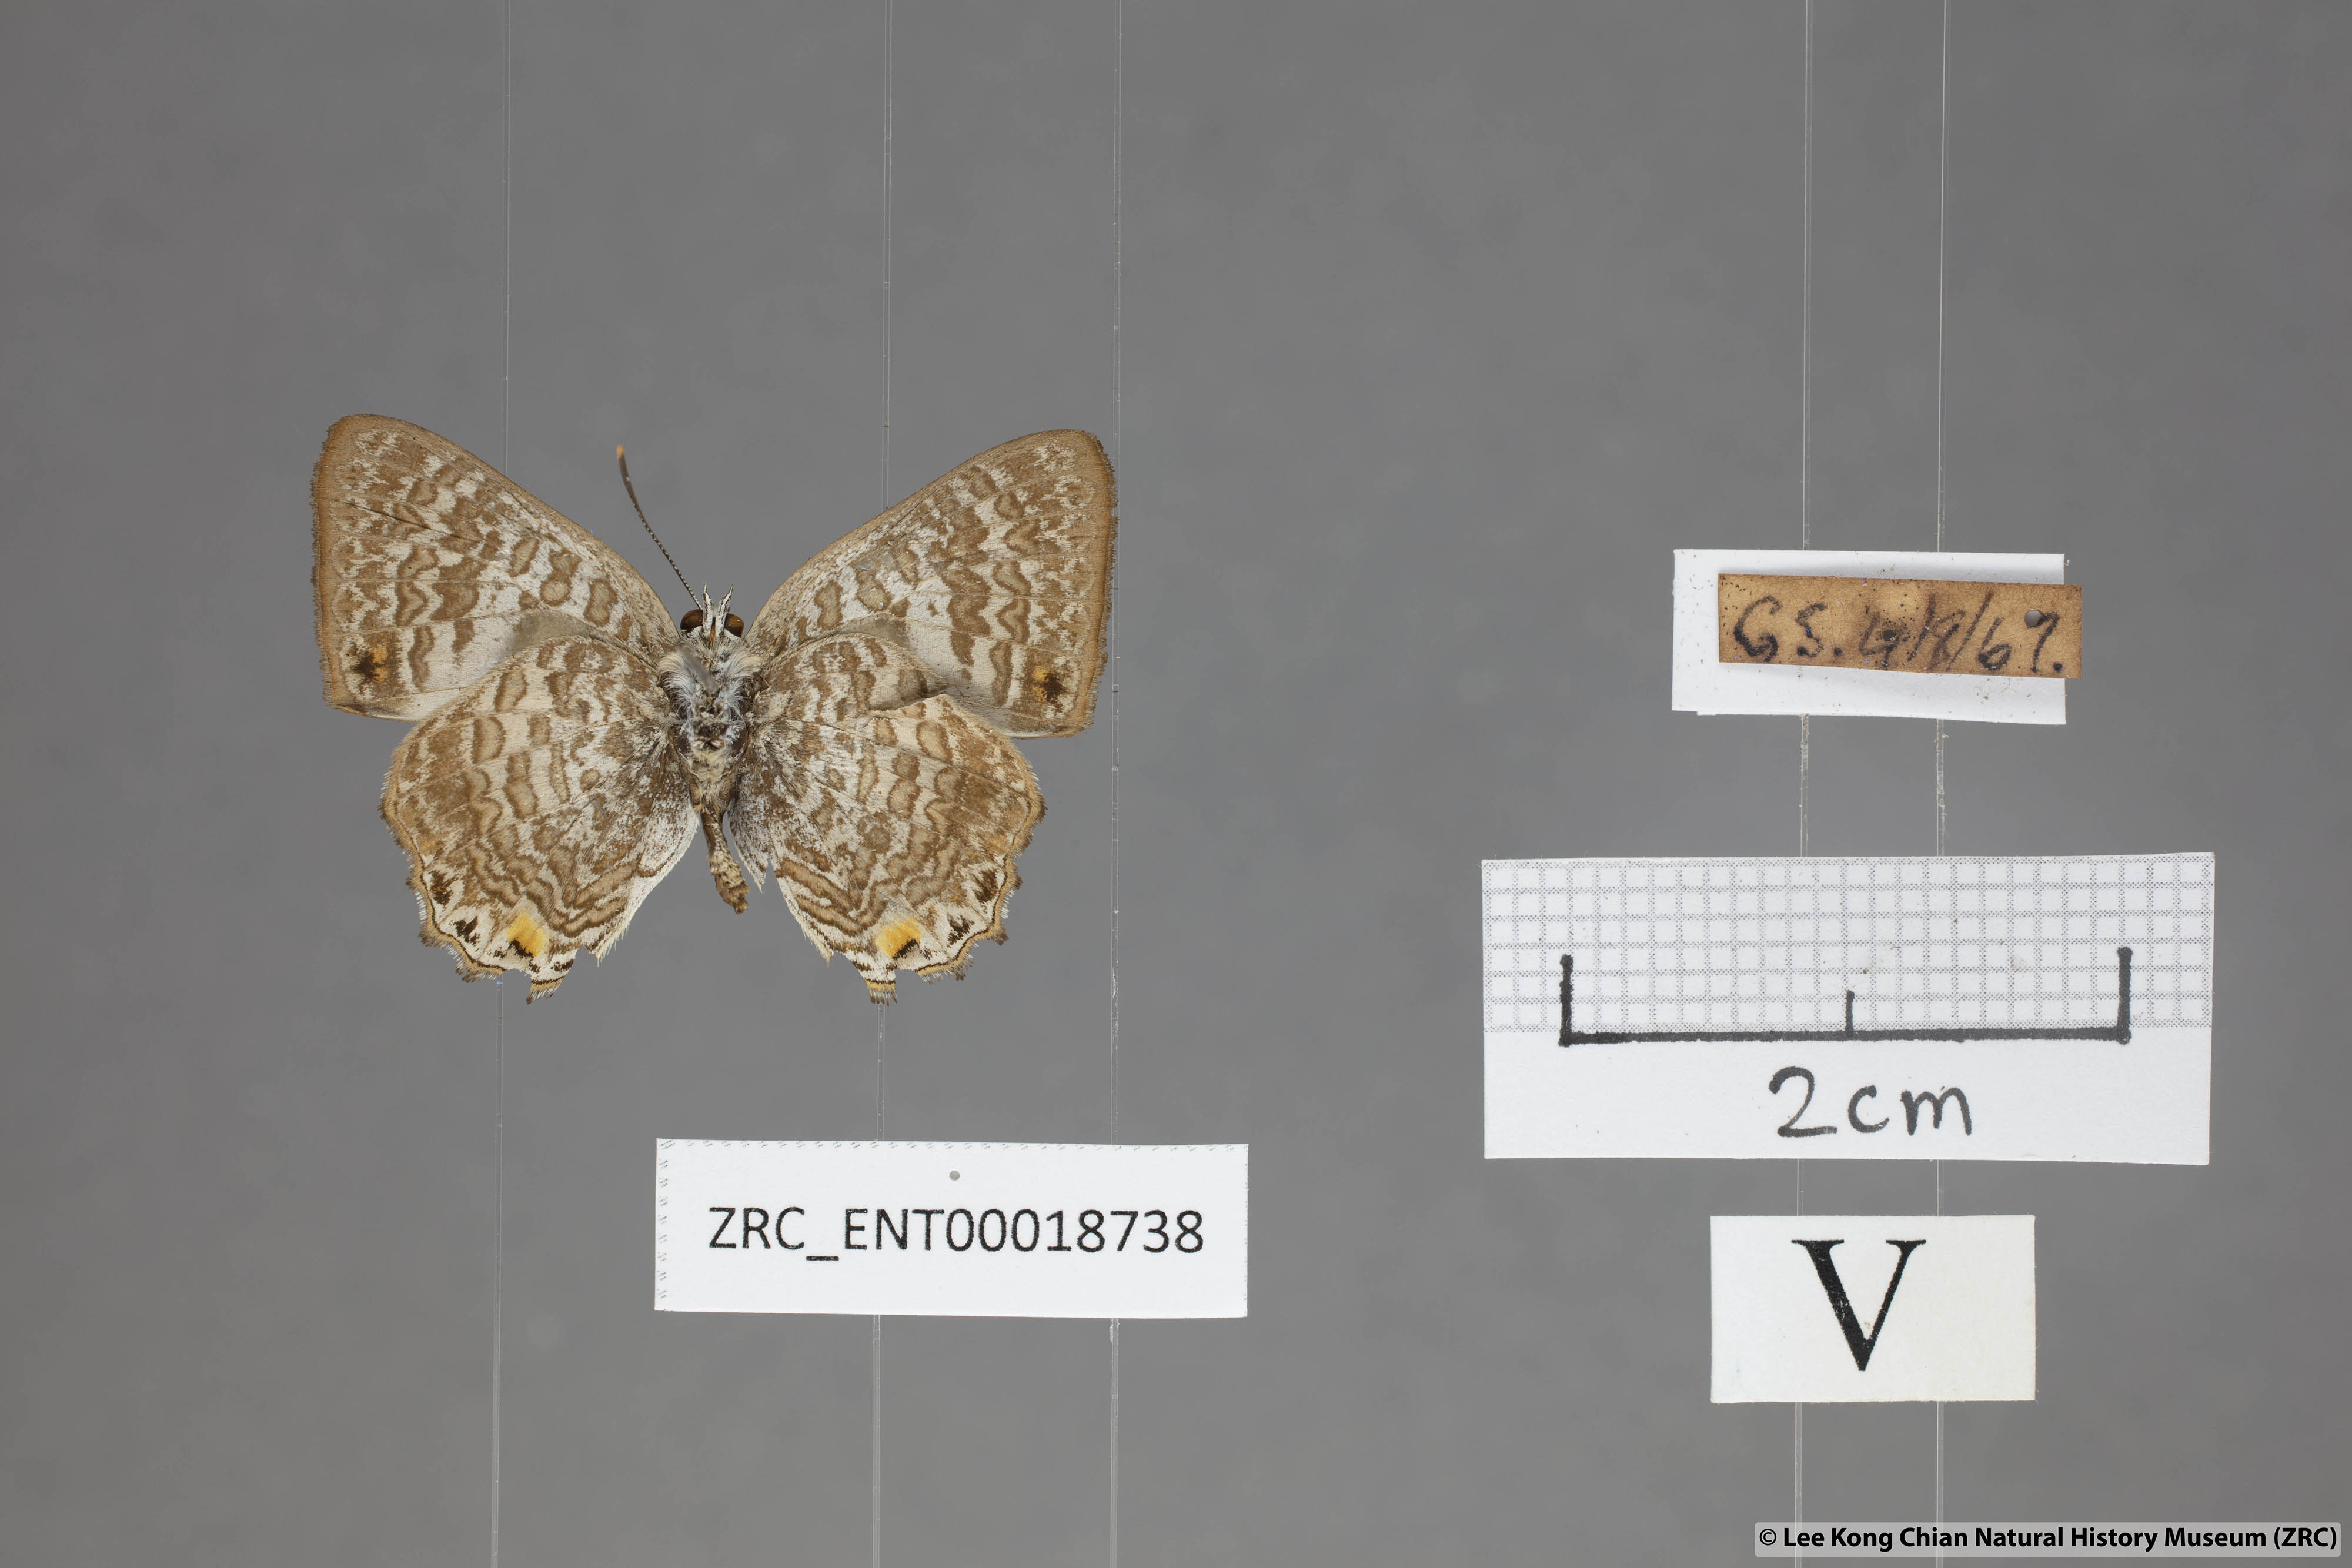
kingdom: Animalia
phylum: Arthropoda
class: Insecta
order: Lepidoptera
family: Lycaenidae
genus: Poritia
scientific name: Poritia erycinoides
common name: Blue gem
